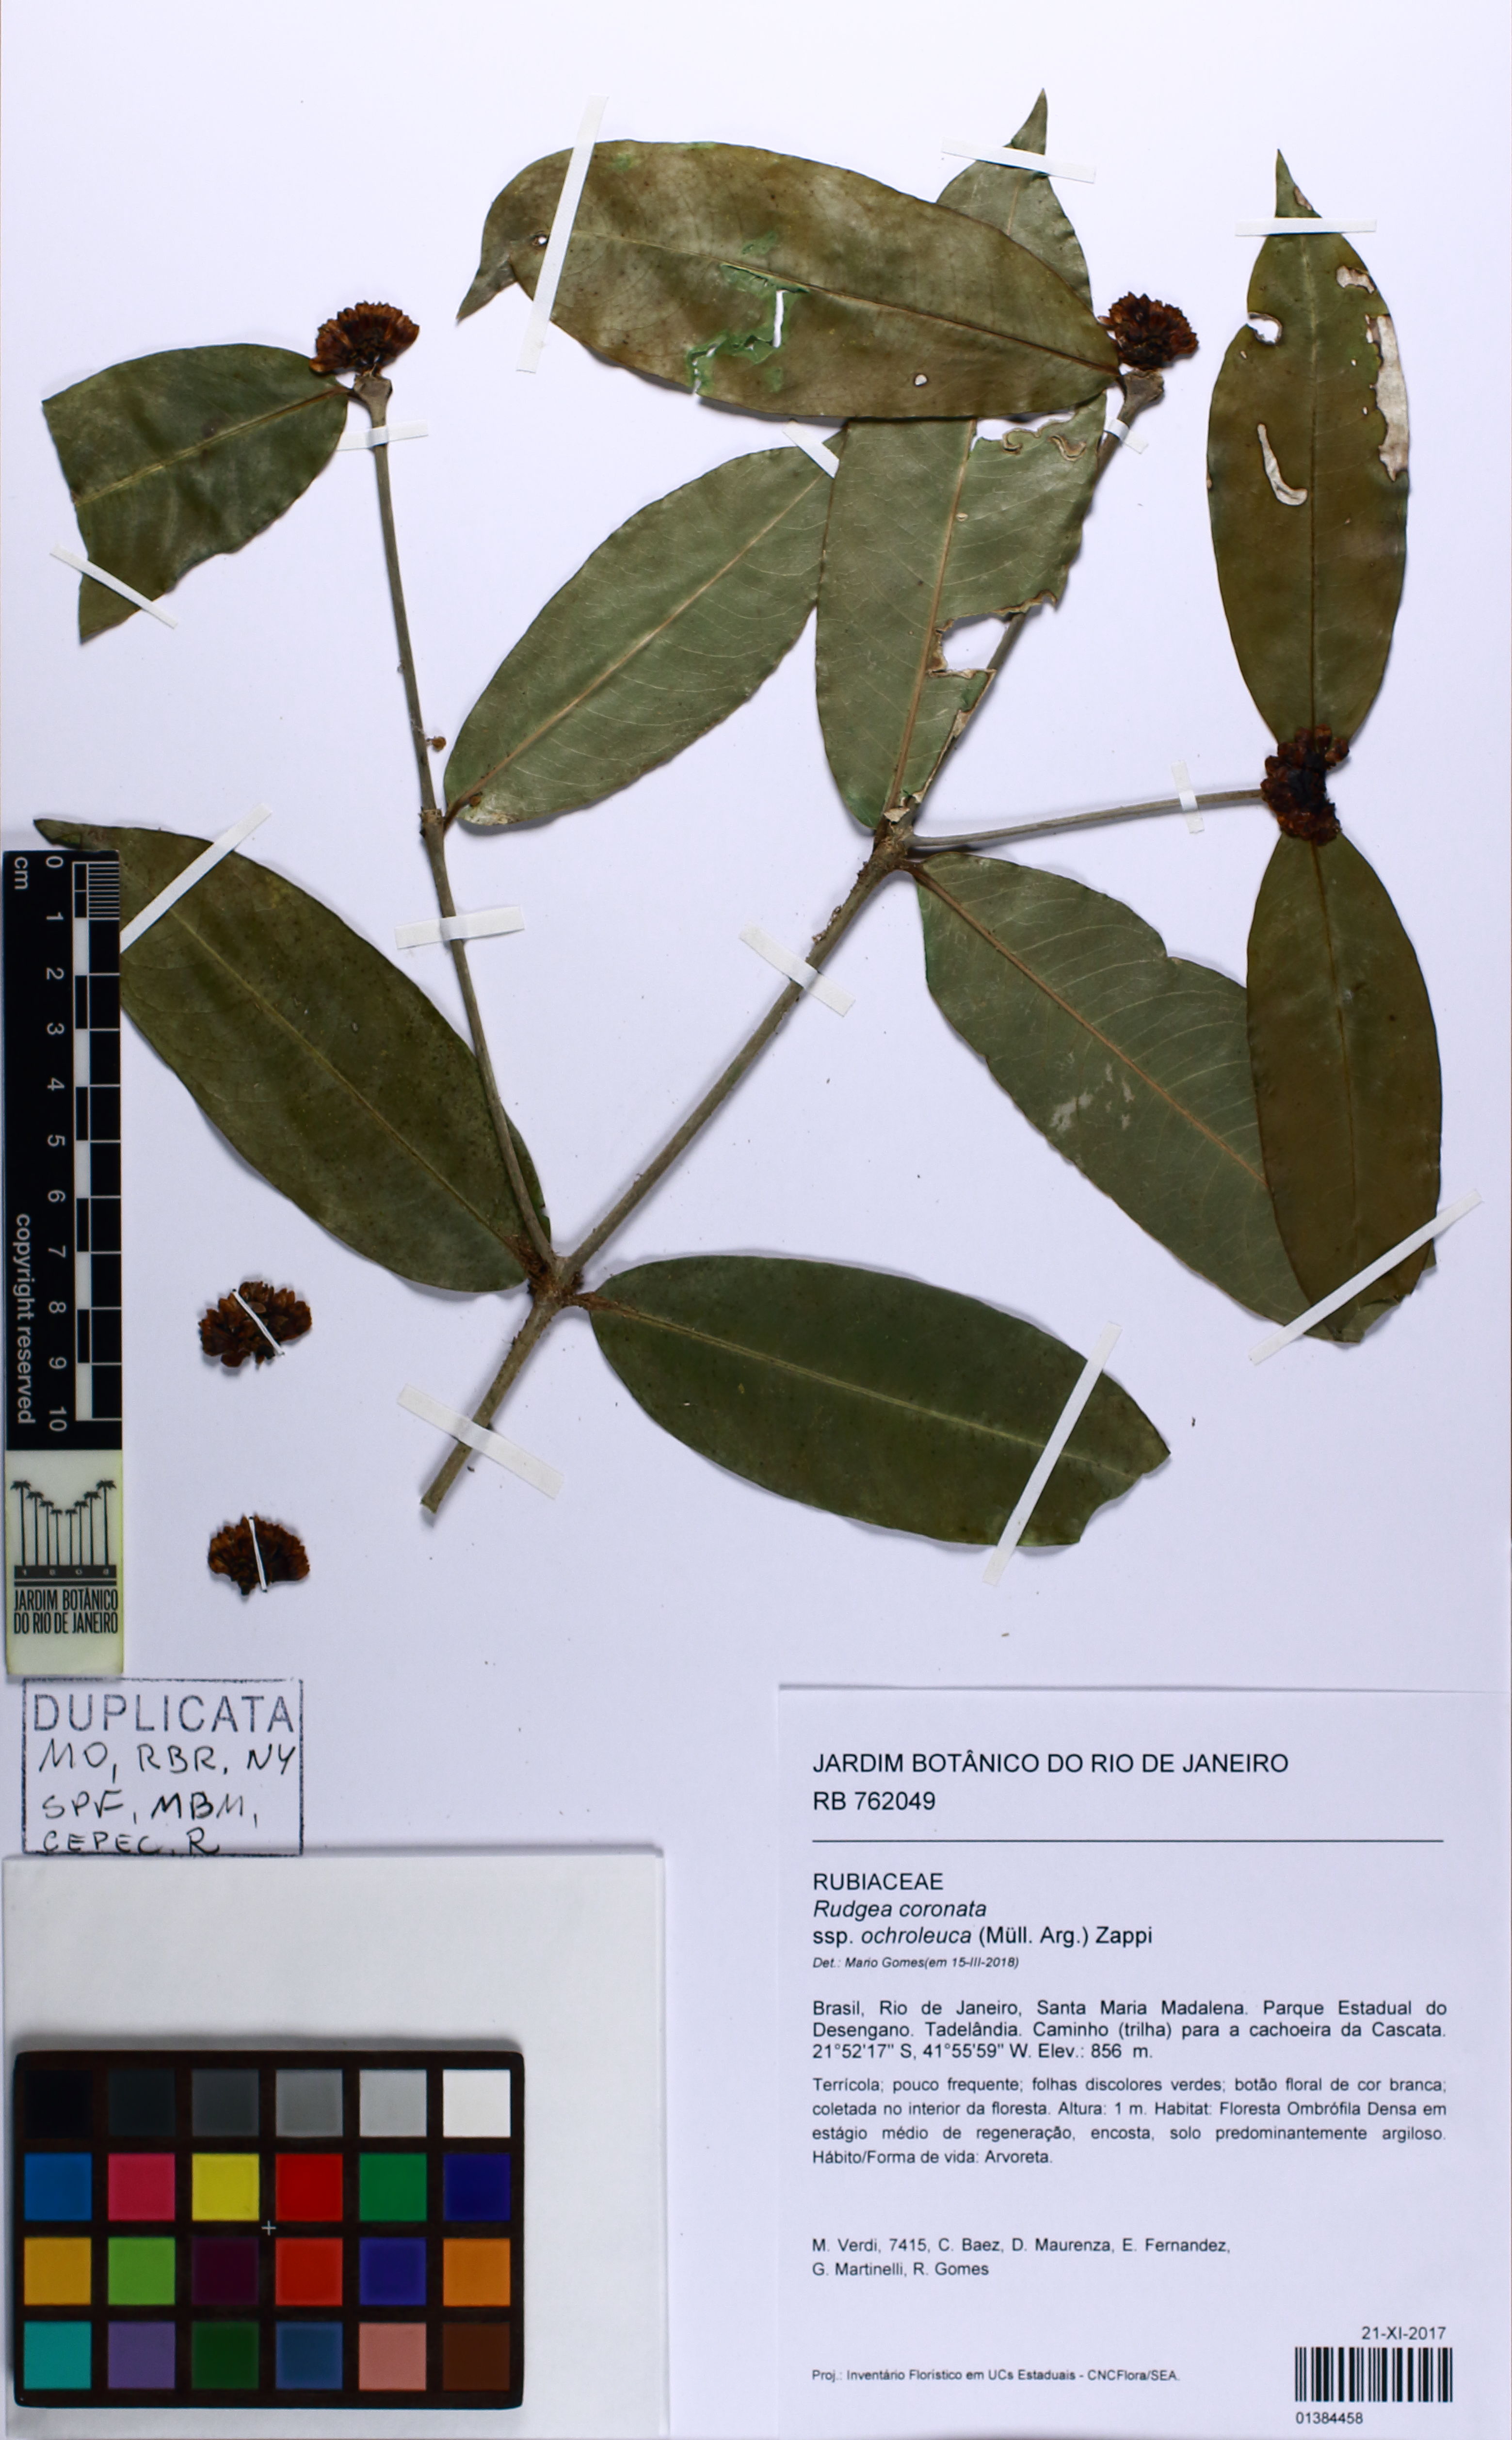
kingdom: Plantae
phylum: Tracheophyta
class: Magnoliopsida
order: Gentianales
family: Rubiaceae
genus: Rudgea
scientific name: Rudgea coronata
